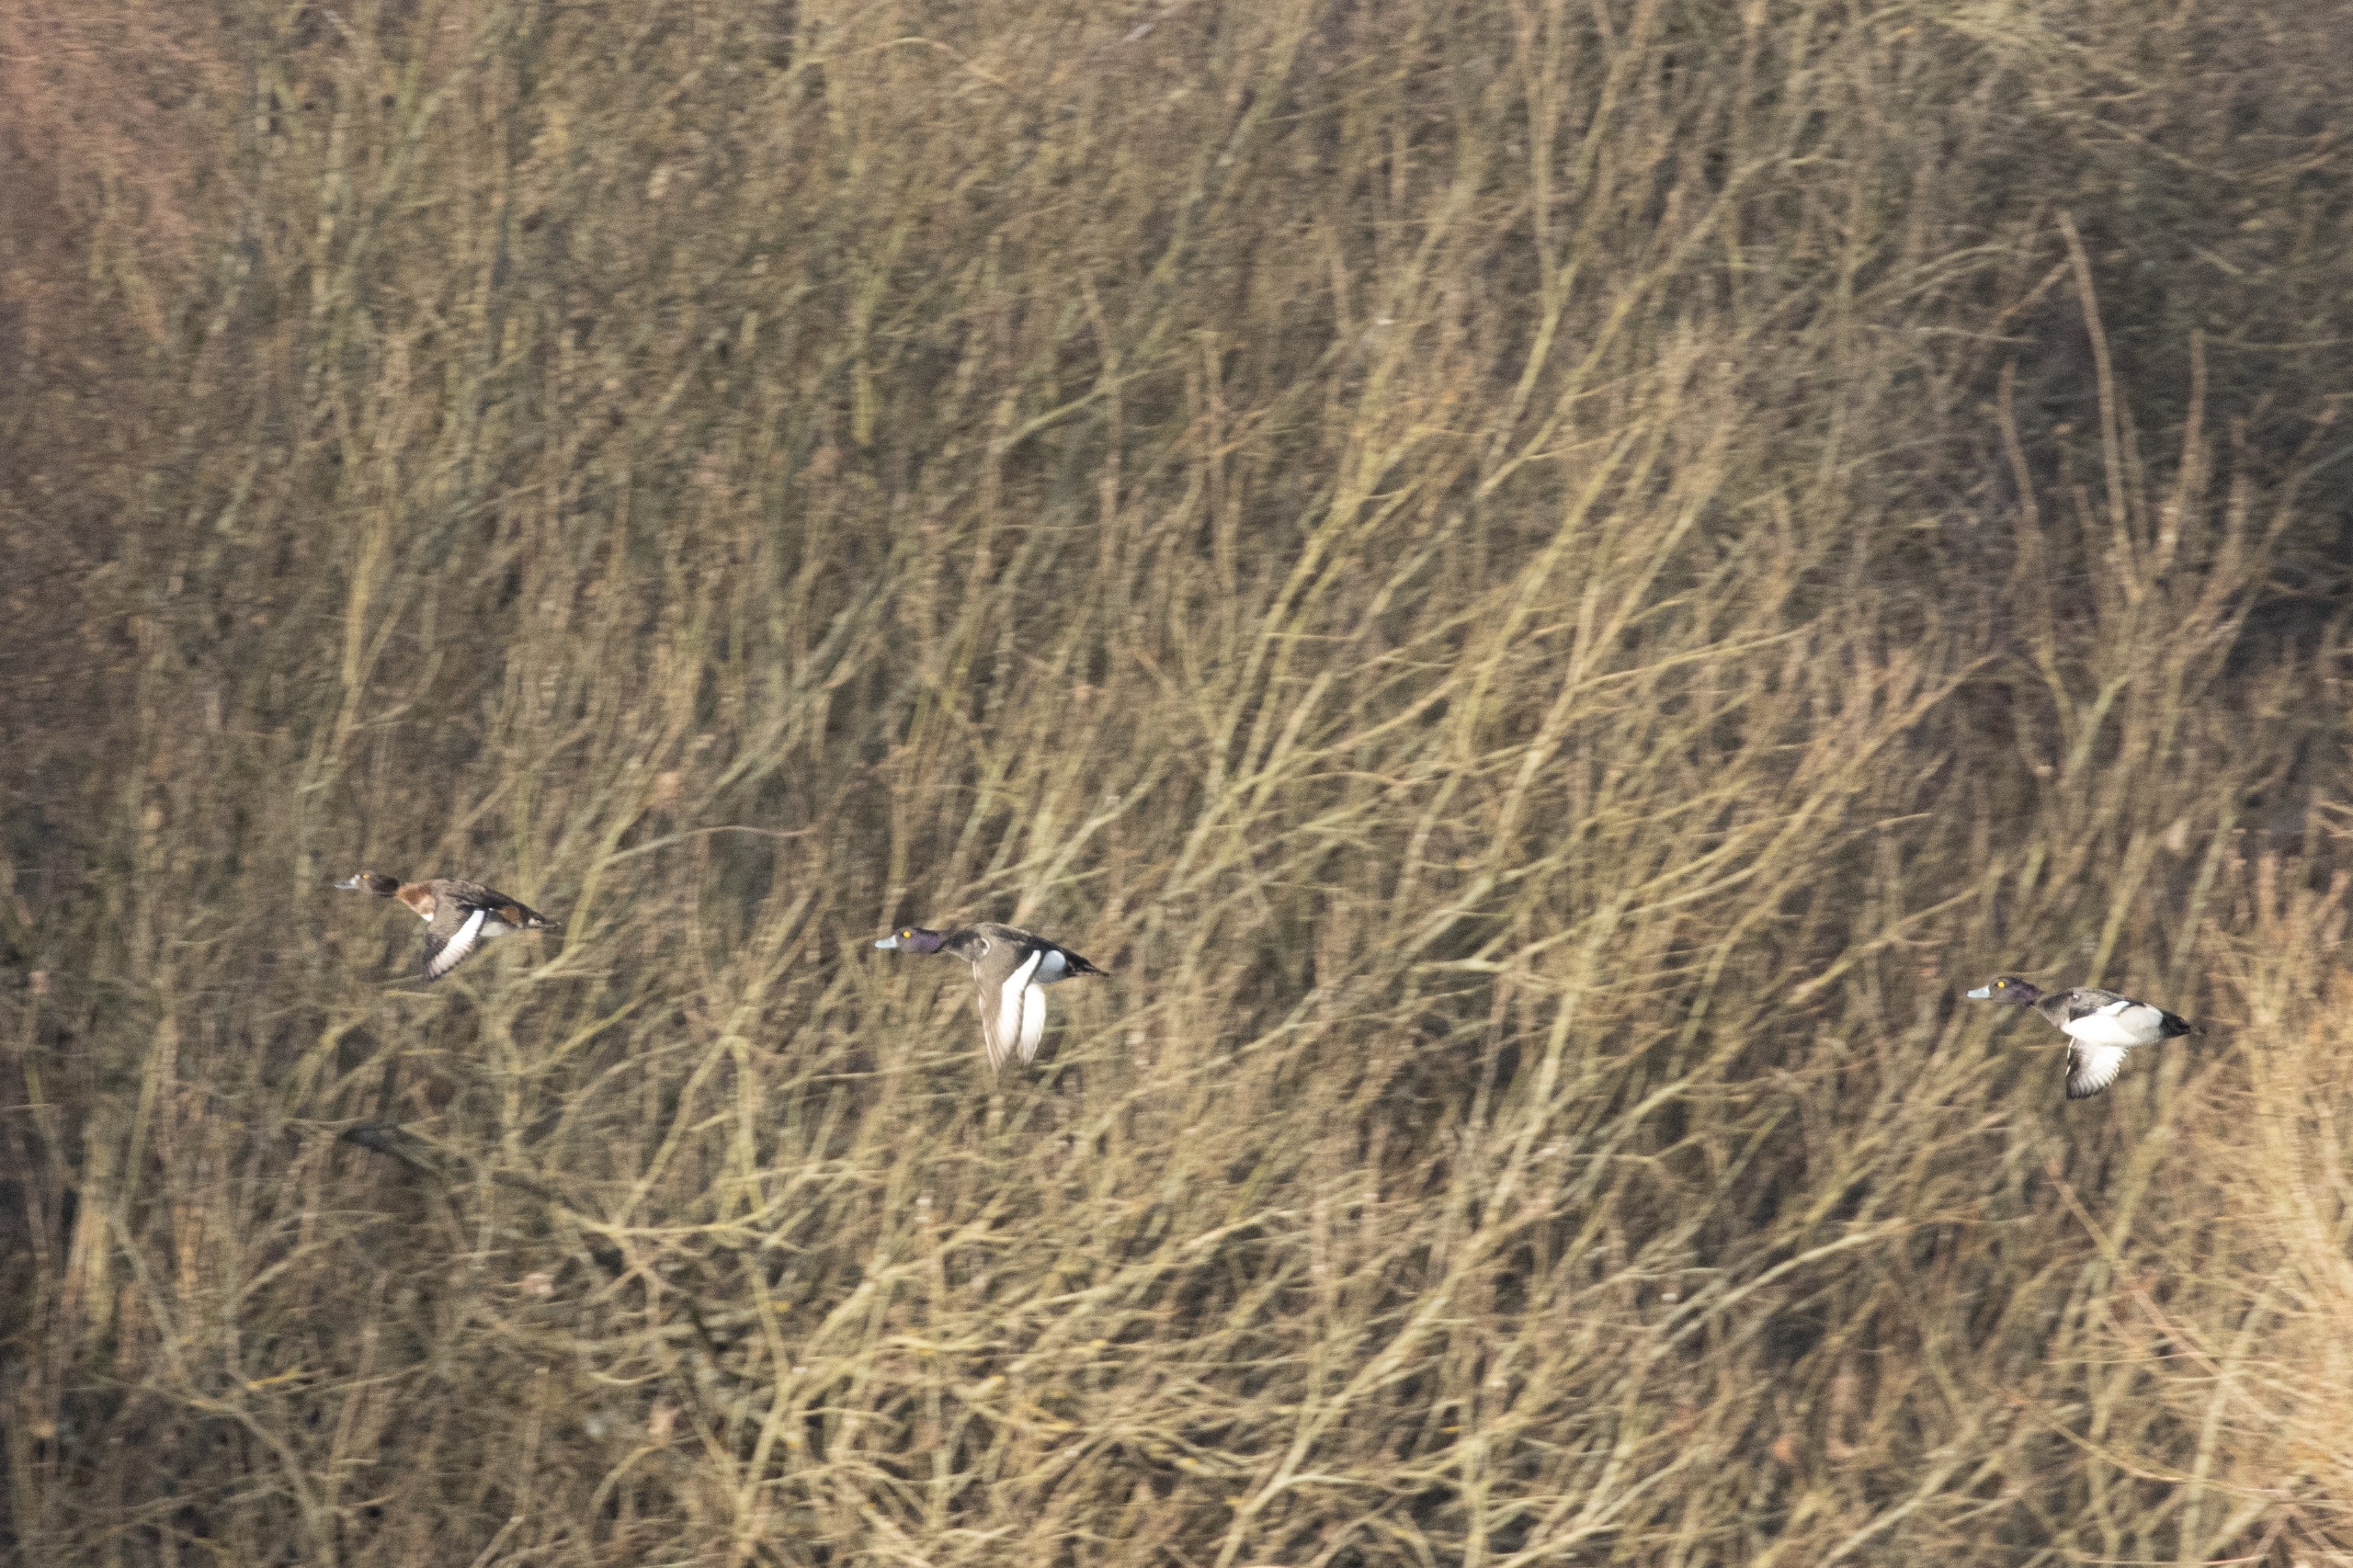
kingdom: Animalia
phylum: Chordata
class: Aves
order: Anseriformes
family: Anatidae
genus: Aythya
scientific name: Aythya fuligula
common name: Troldand
